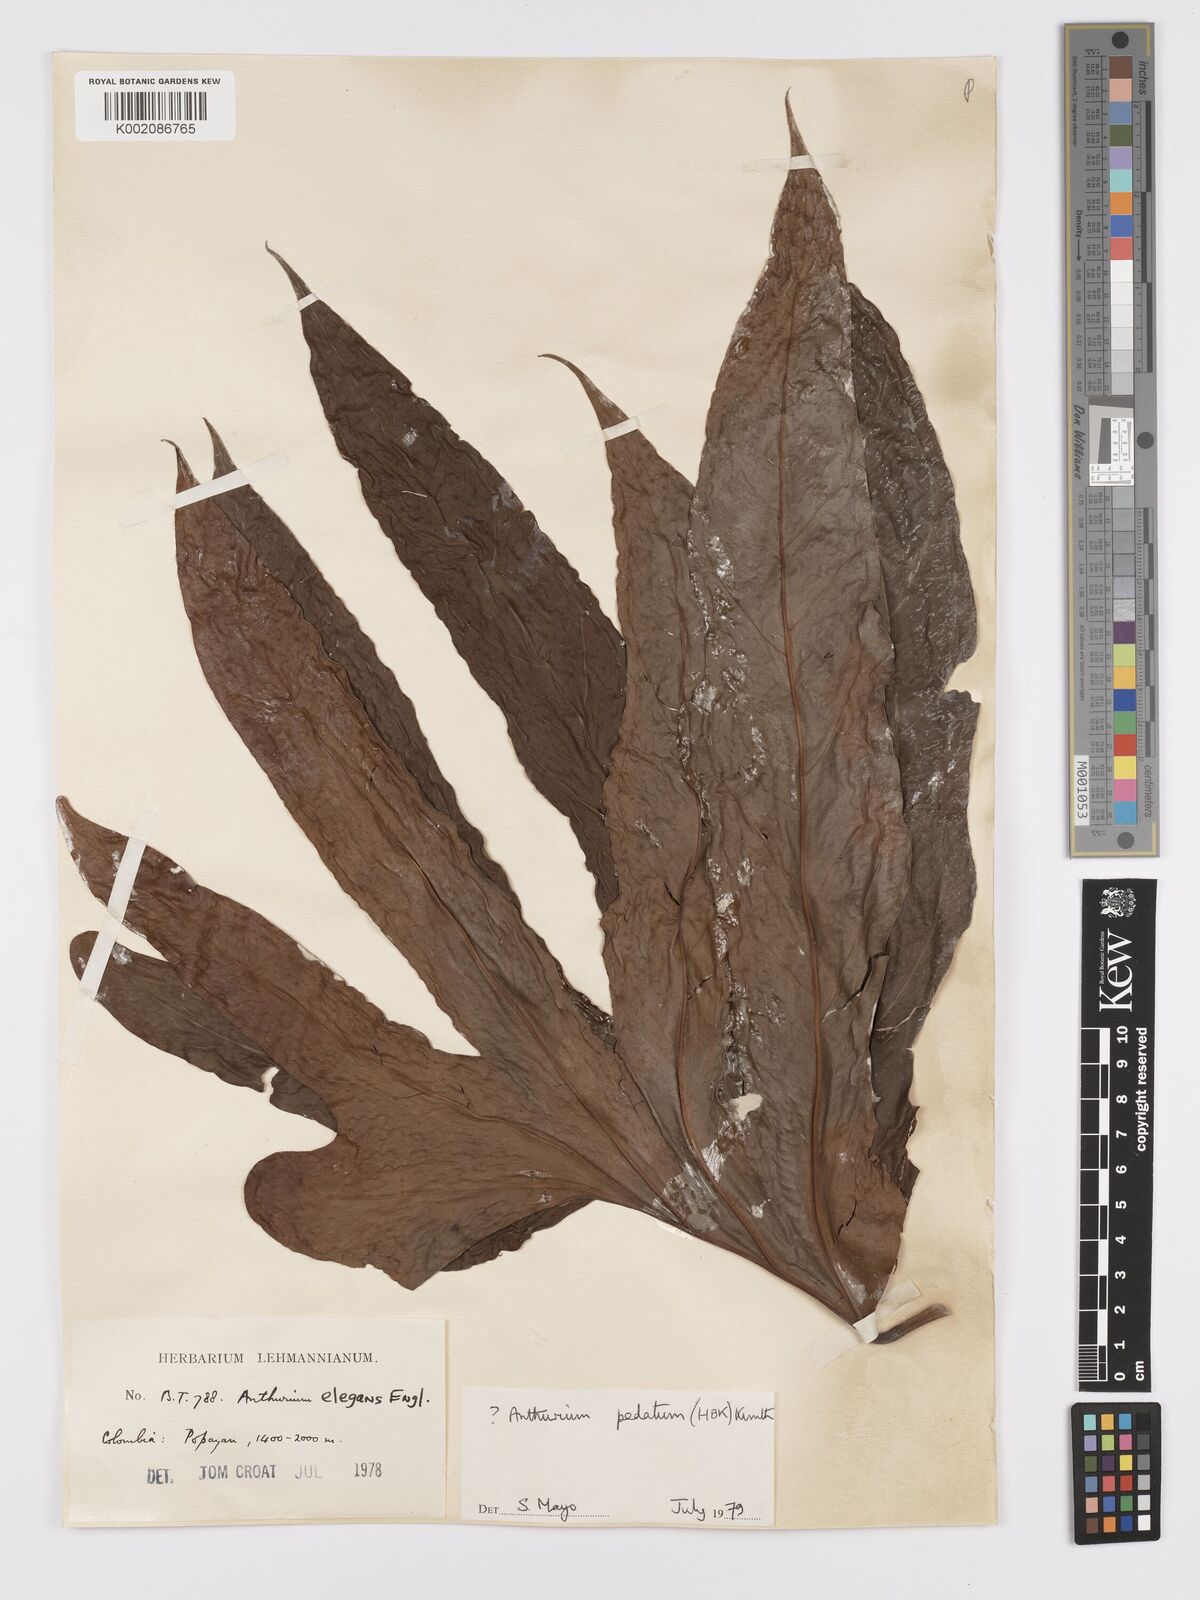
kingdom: Plantae
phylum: Tracheophyta
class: Liliopsida
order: Alismatales
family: Araceae
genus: Anthurium
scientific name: Anthurium pedatum
